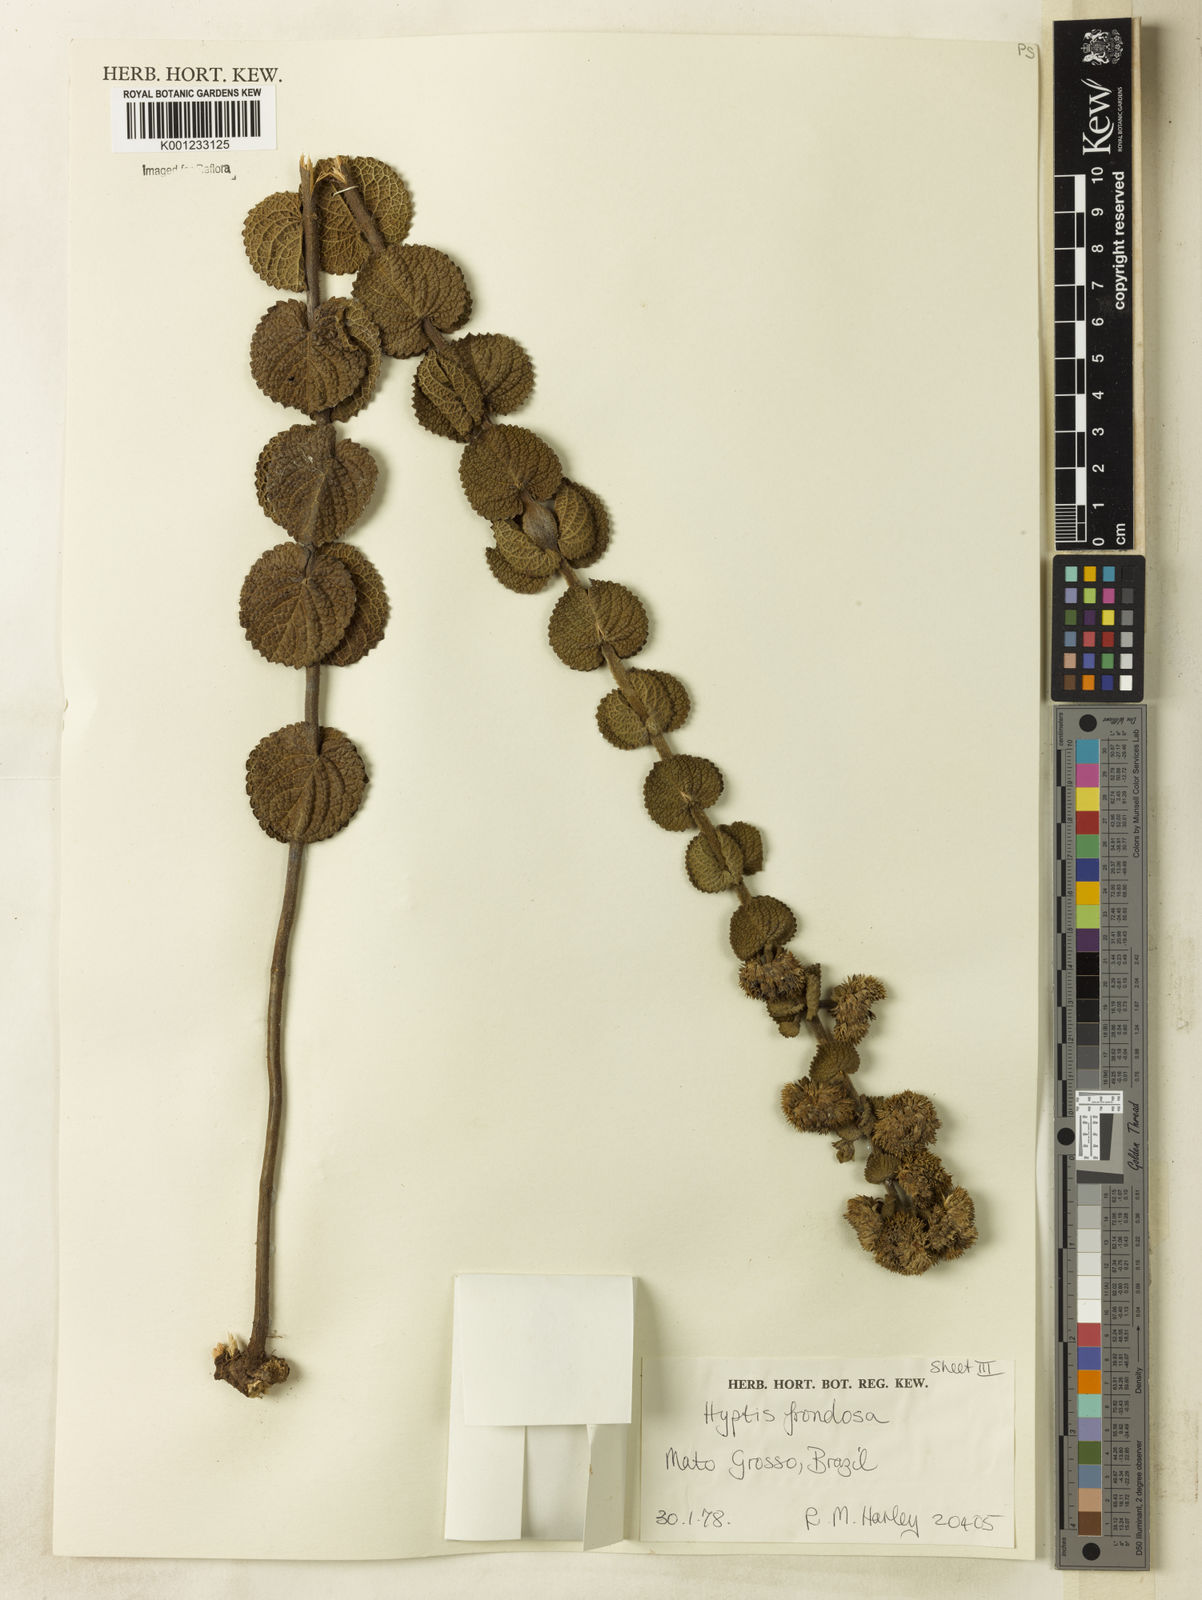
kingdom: Plantae
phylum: Tracheophyta
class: Magnoliopsida
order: Lamiales
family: Lamiaceae
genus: Hyptis
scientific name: Hyptis frondosa
